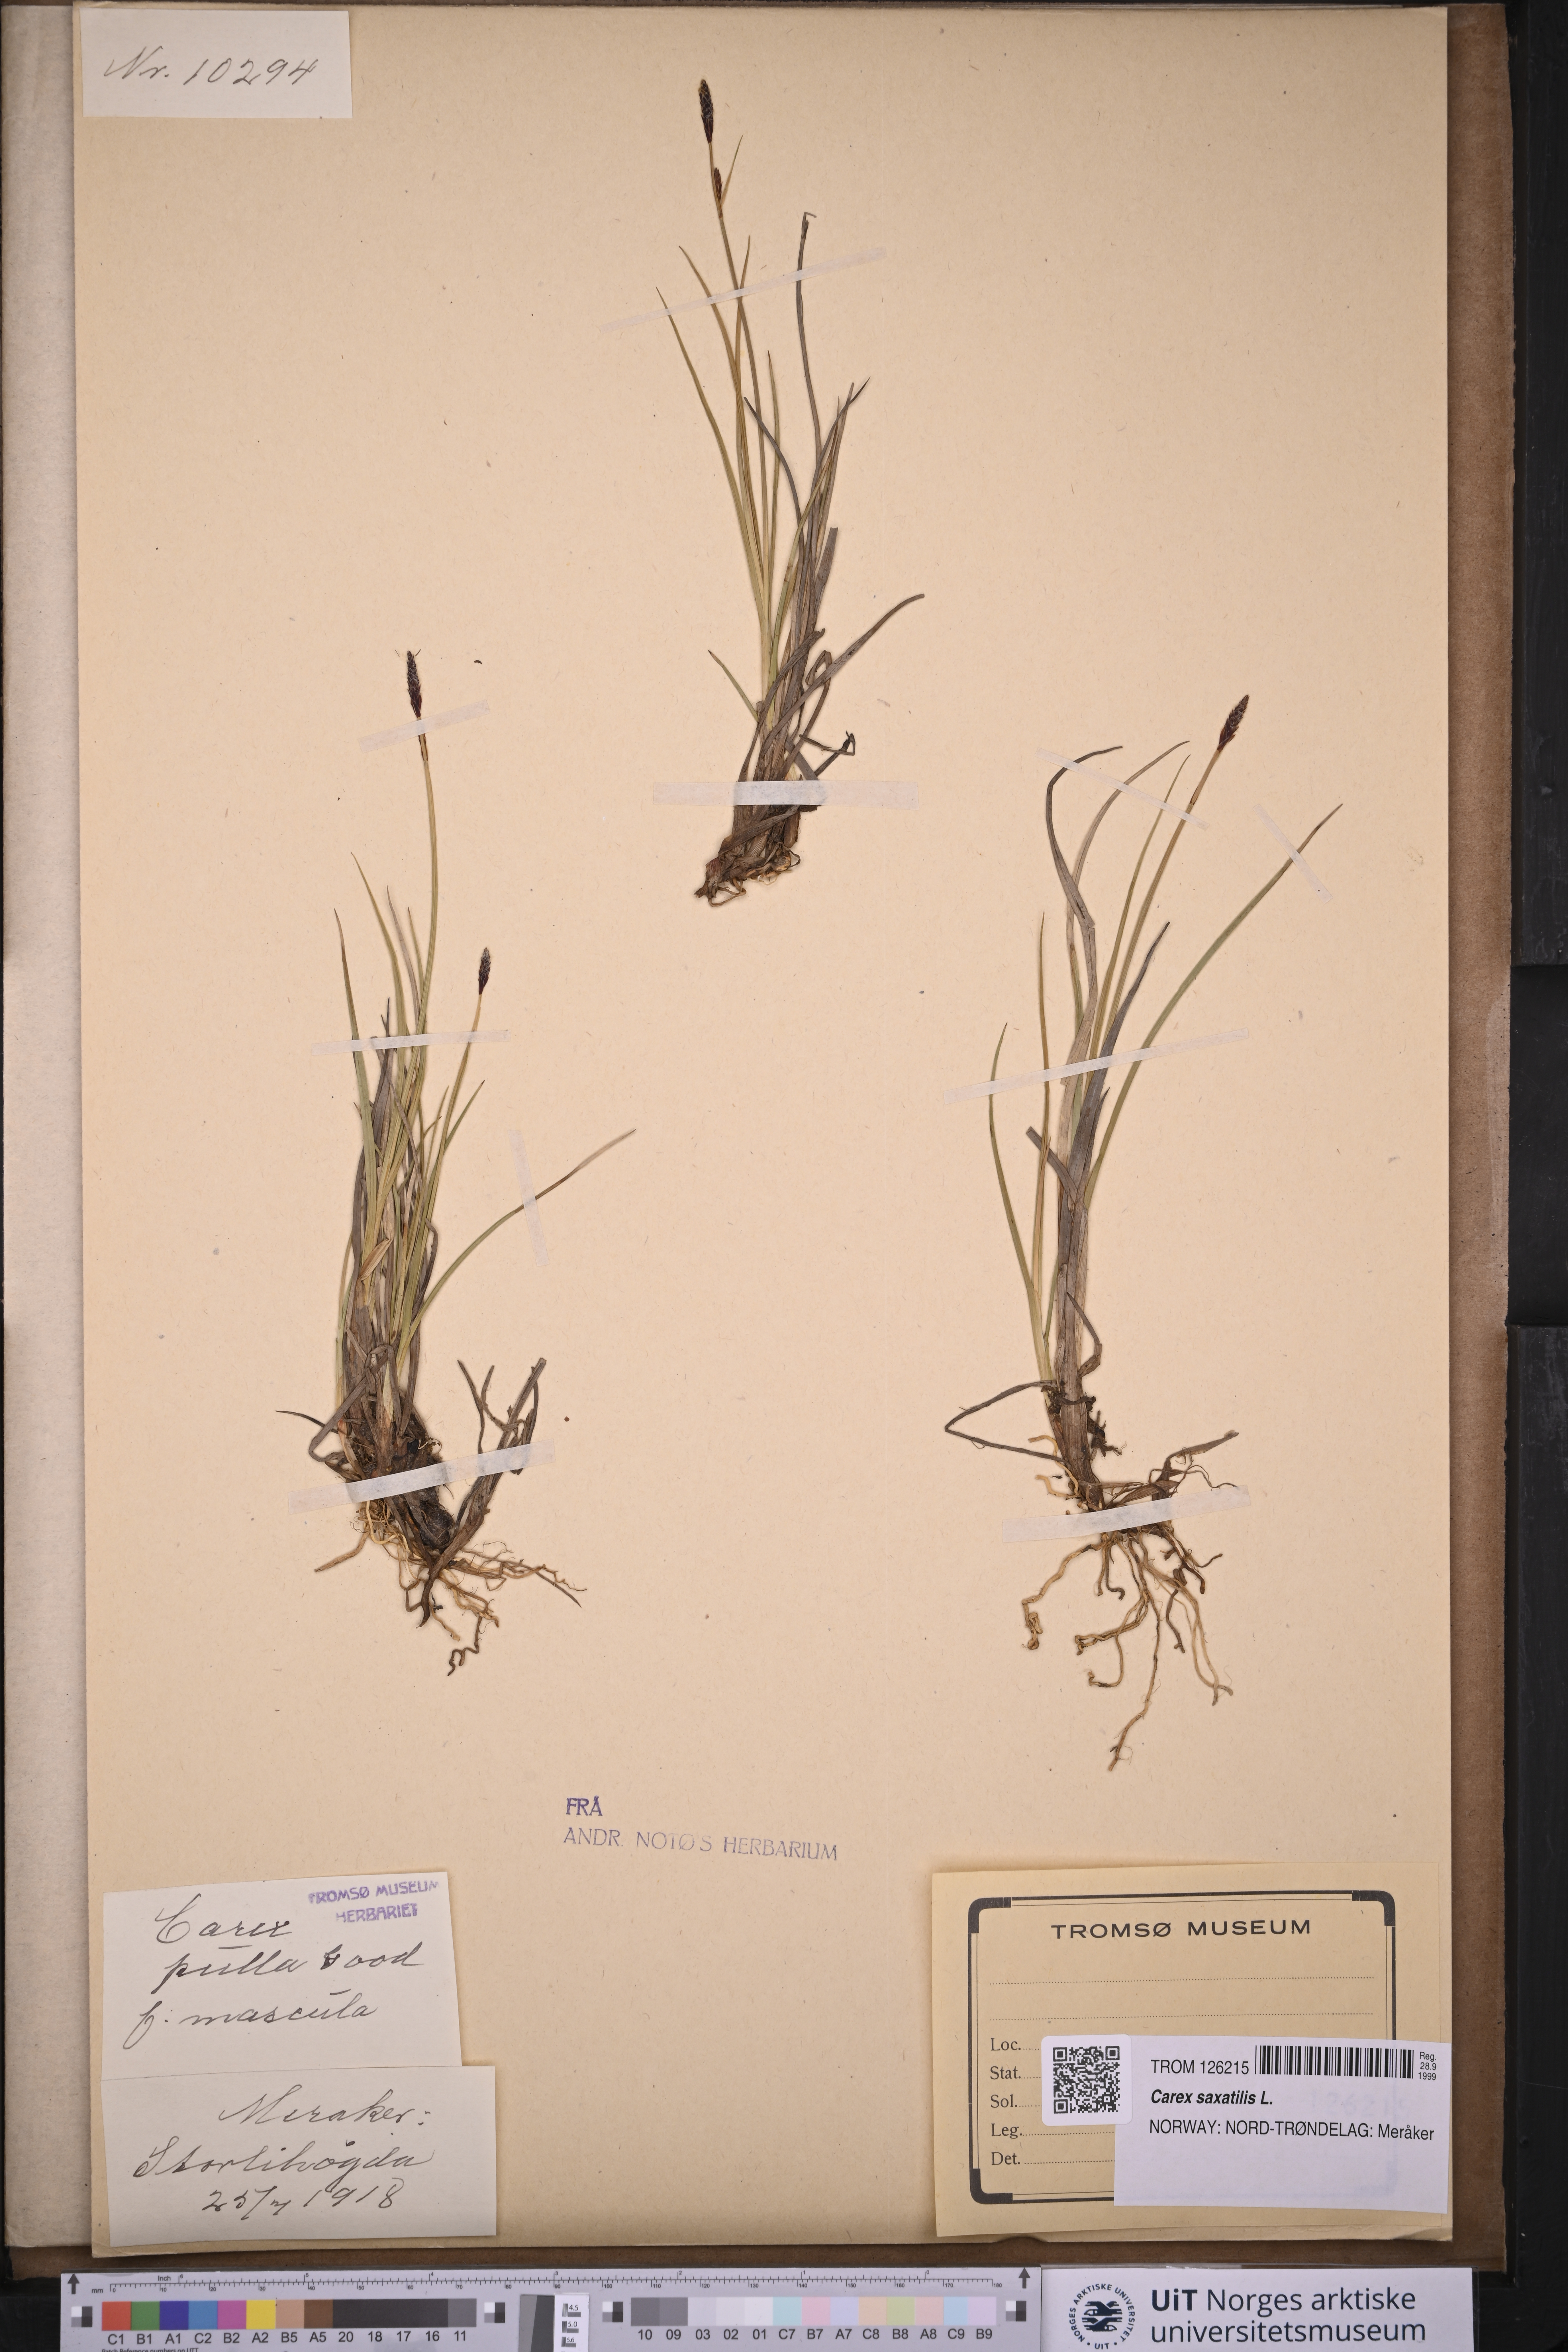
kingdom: Plantae
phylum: Tracheophyta
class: Liliopsida
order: Poales
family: Cyperaceae
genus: Carex
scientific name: Carex saxatilis
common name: Russet sedge
